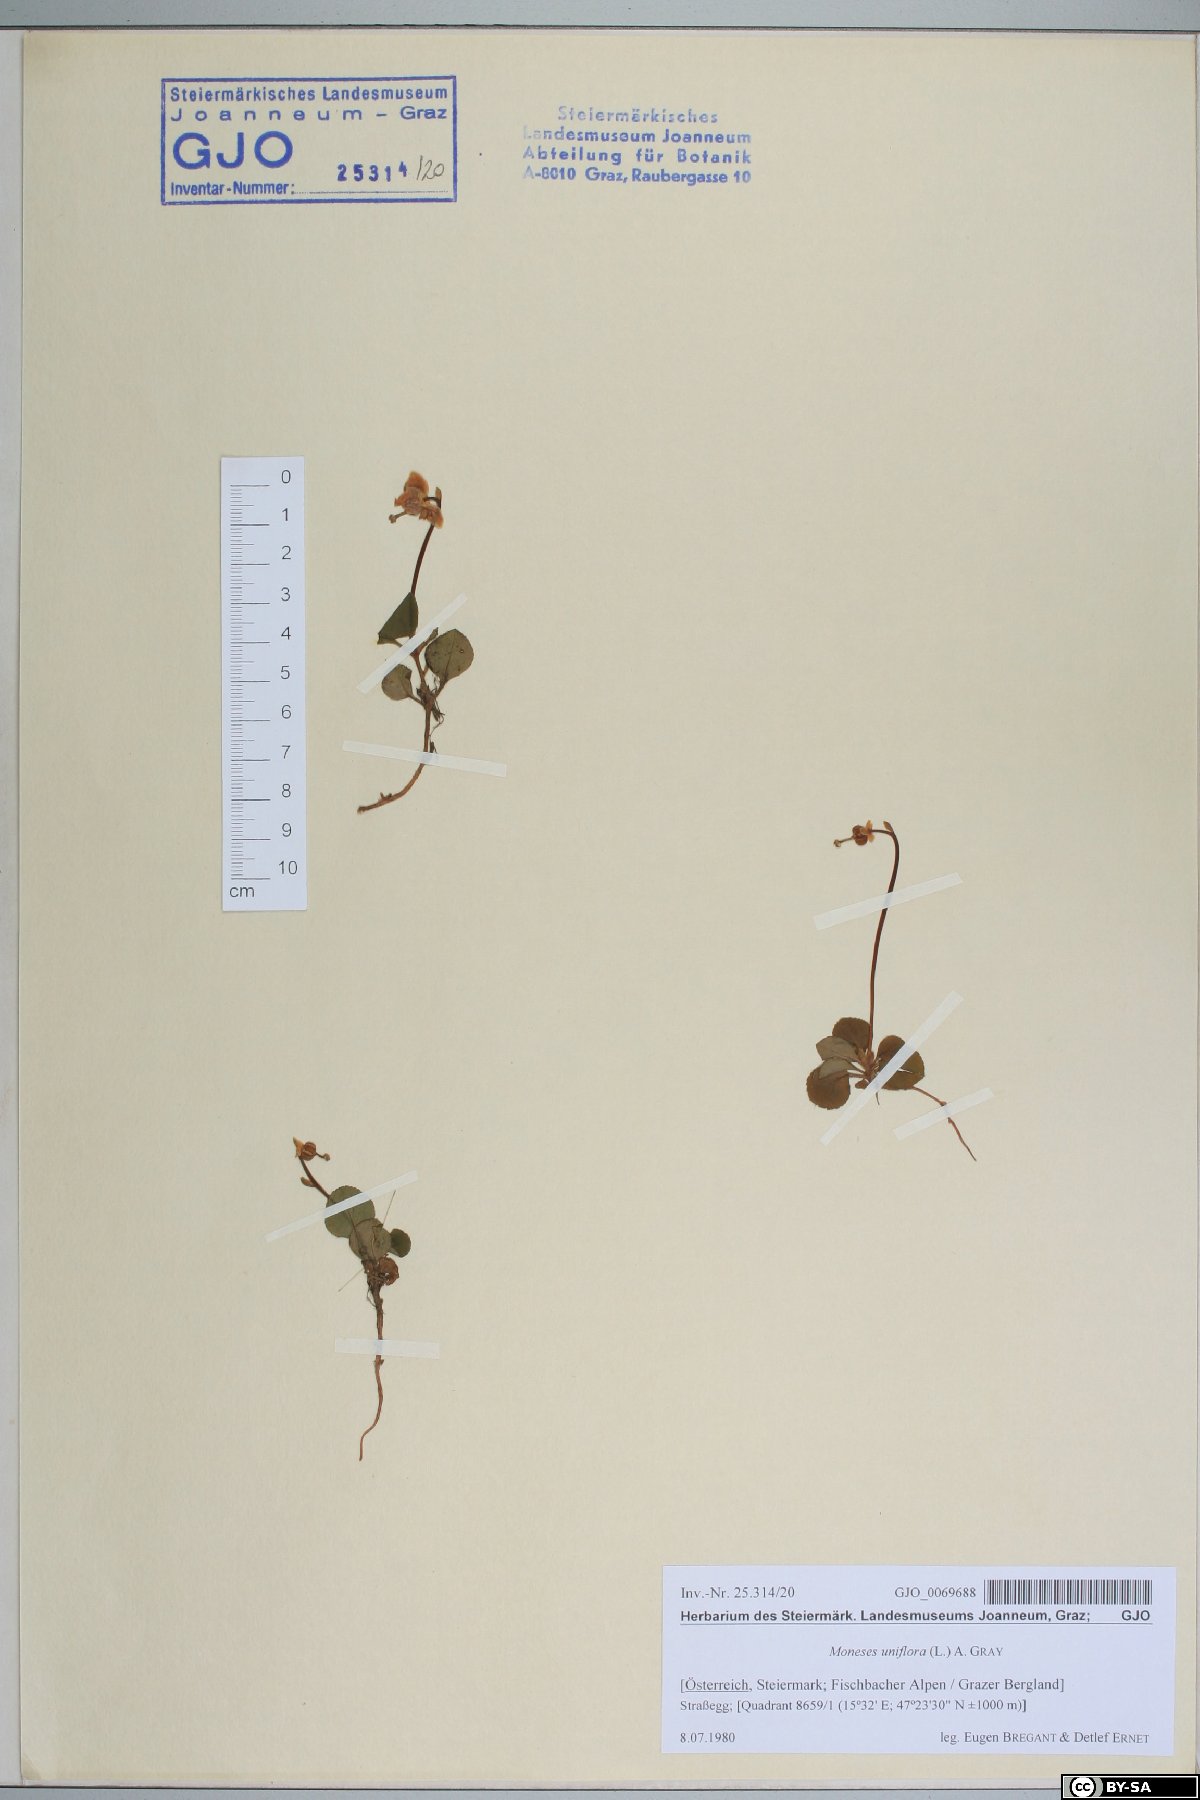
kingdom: Plantae
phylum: Tracheophyta
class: Magnoliopsida
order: Ericales
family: Ericaceae
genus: Moneses
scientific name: Moneses uniflora
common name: One-flowered wintergreen
